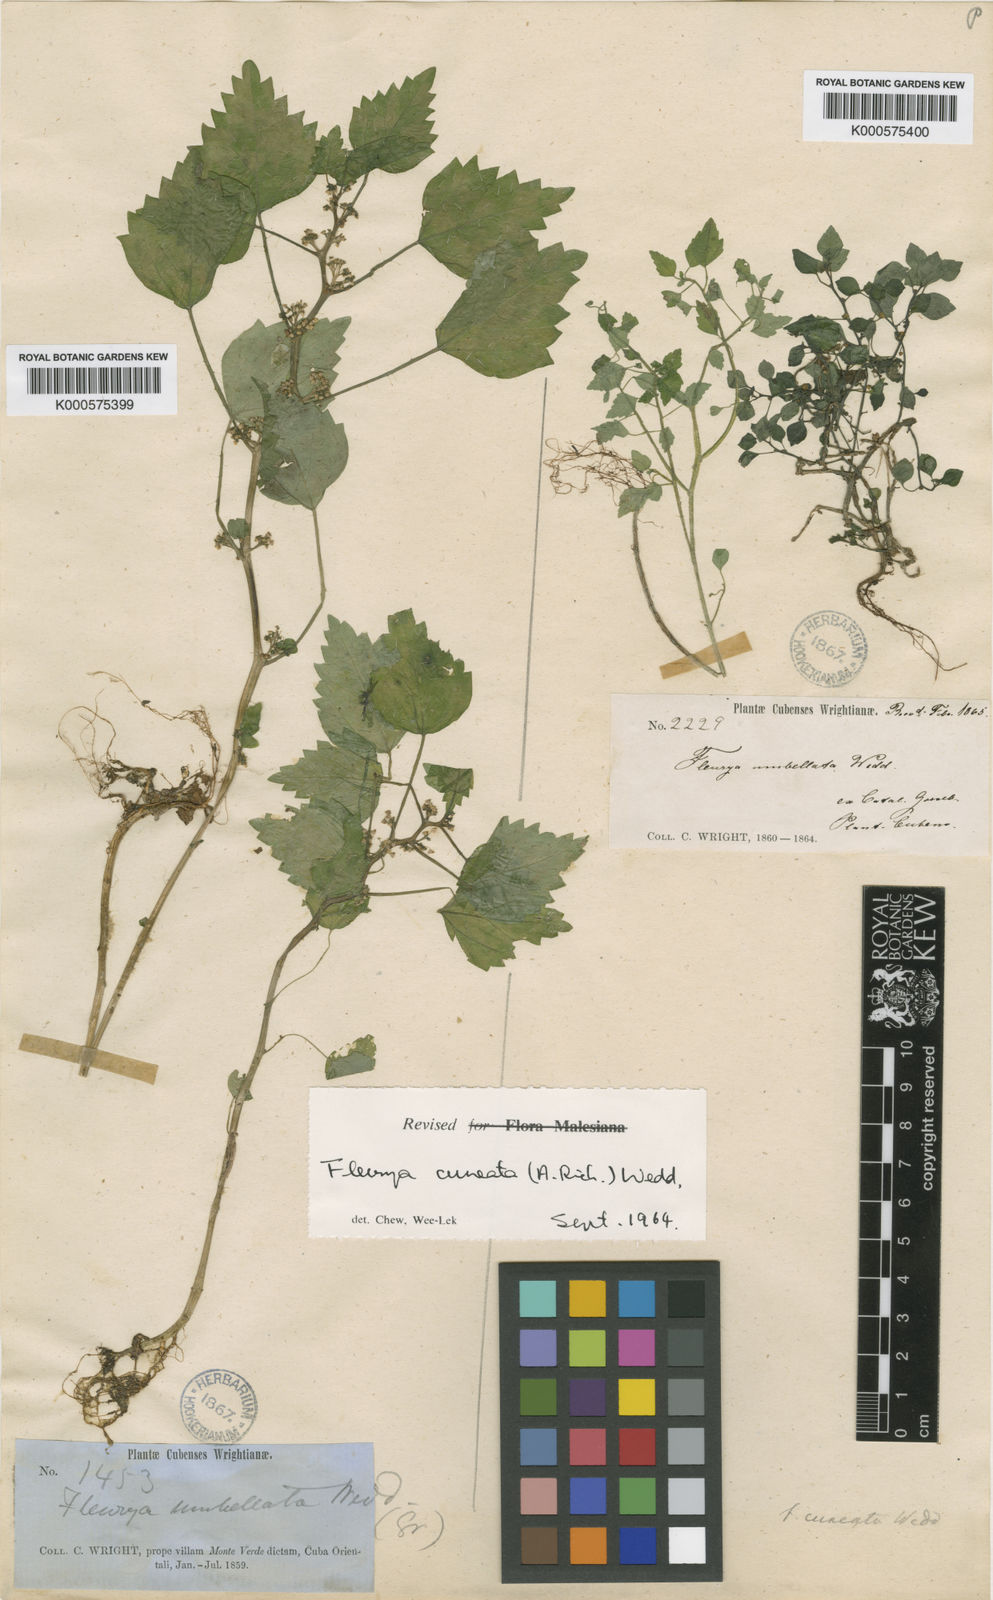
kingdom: Plantae
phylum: Tracheophyta
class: Magnoliopsida
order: Rosales
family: Urticaceae
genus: Laportea
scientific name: Laportea cuneata
